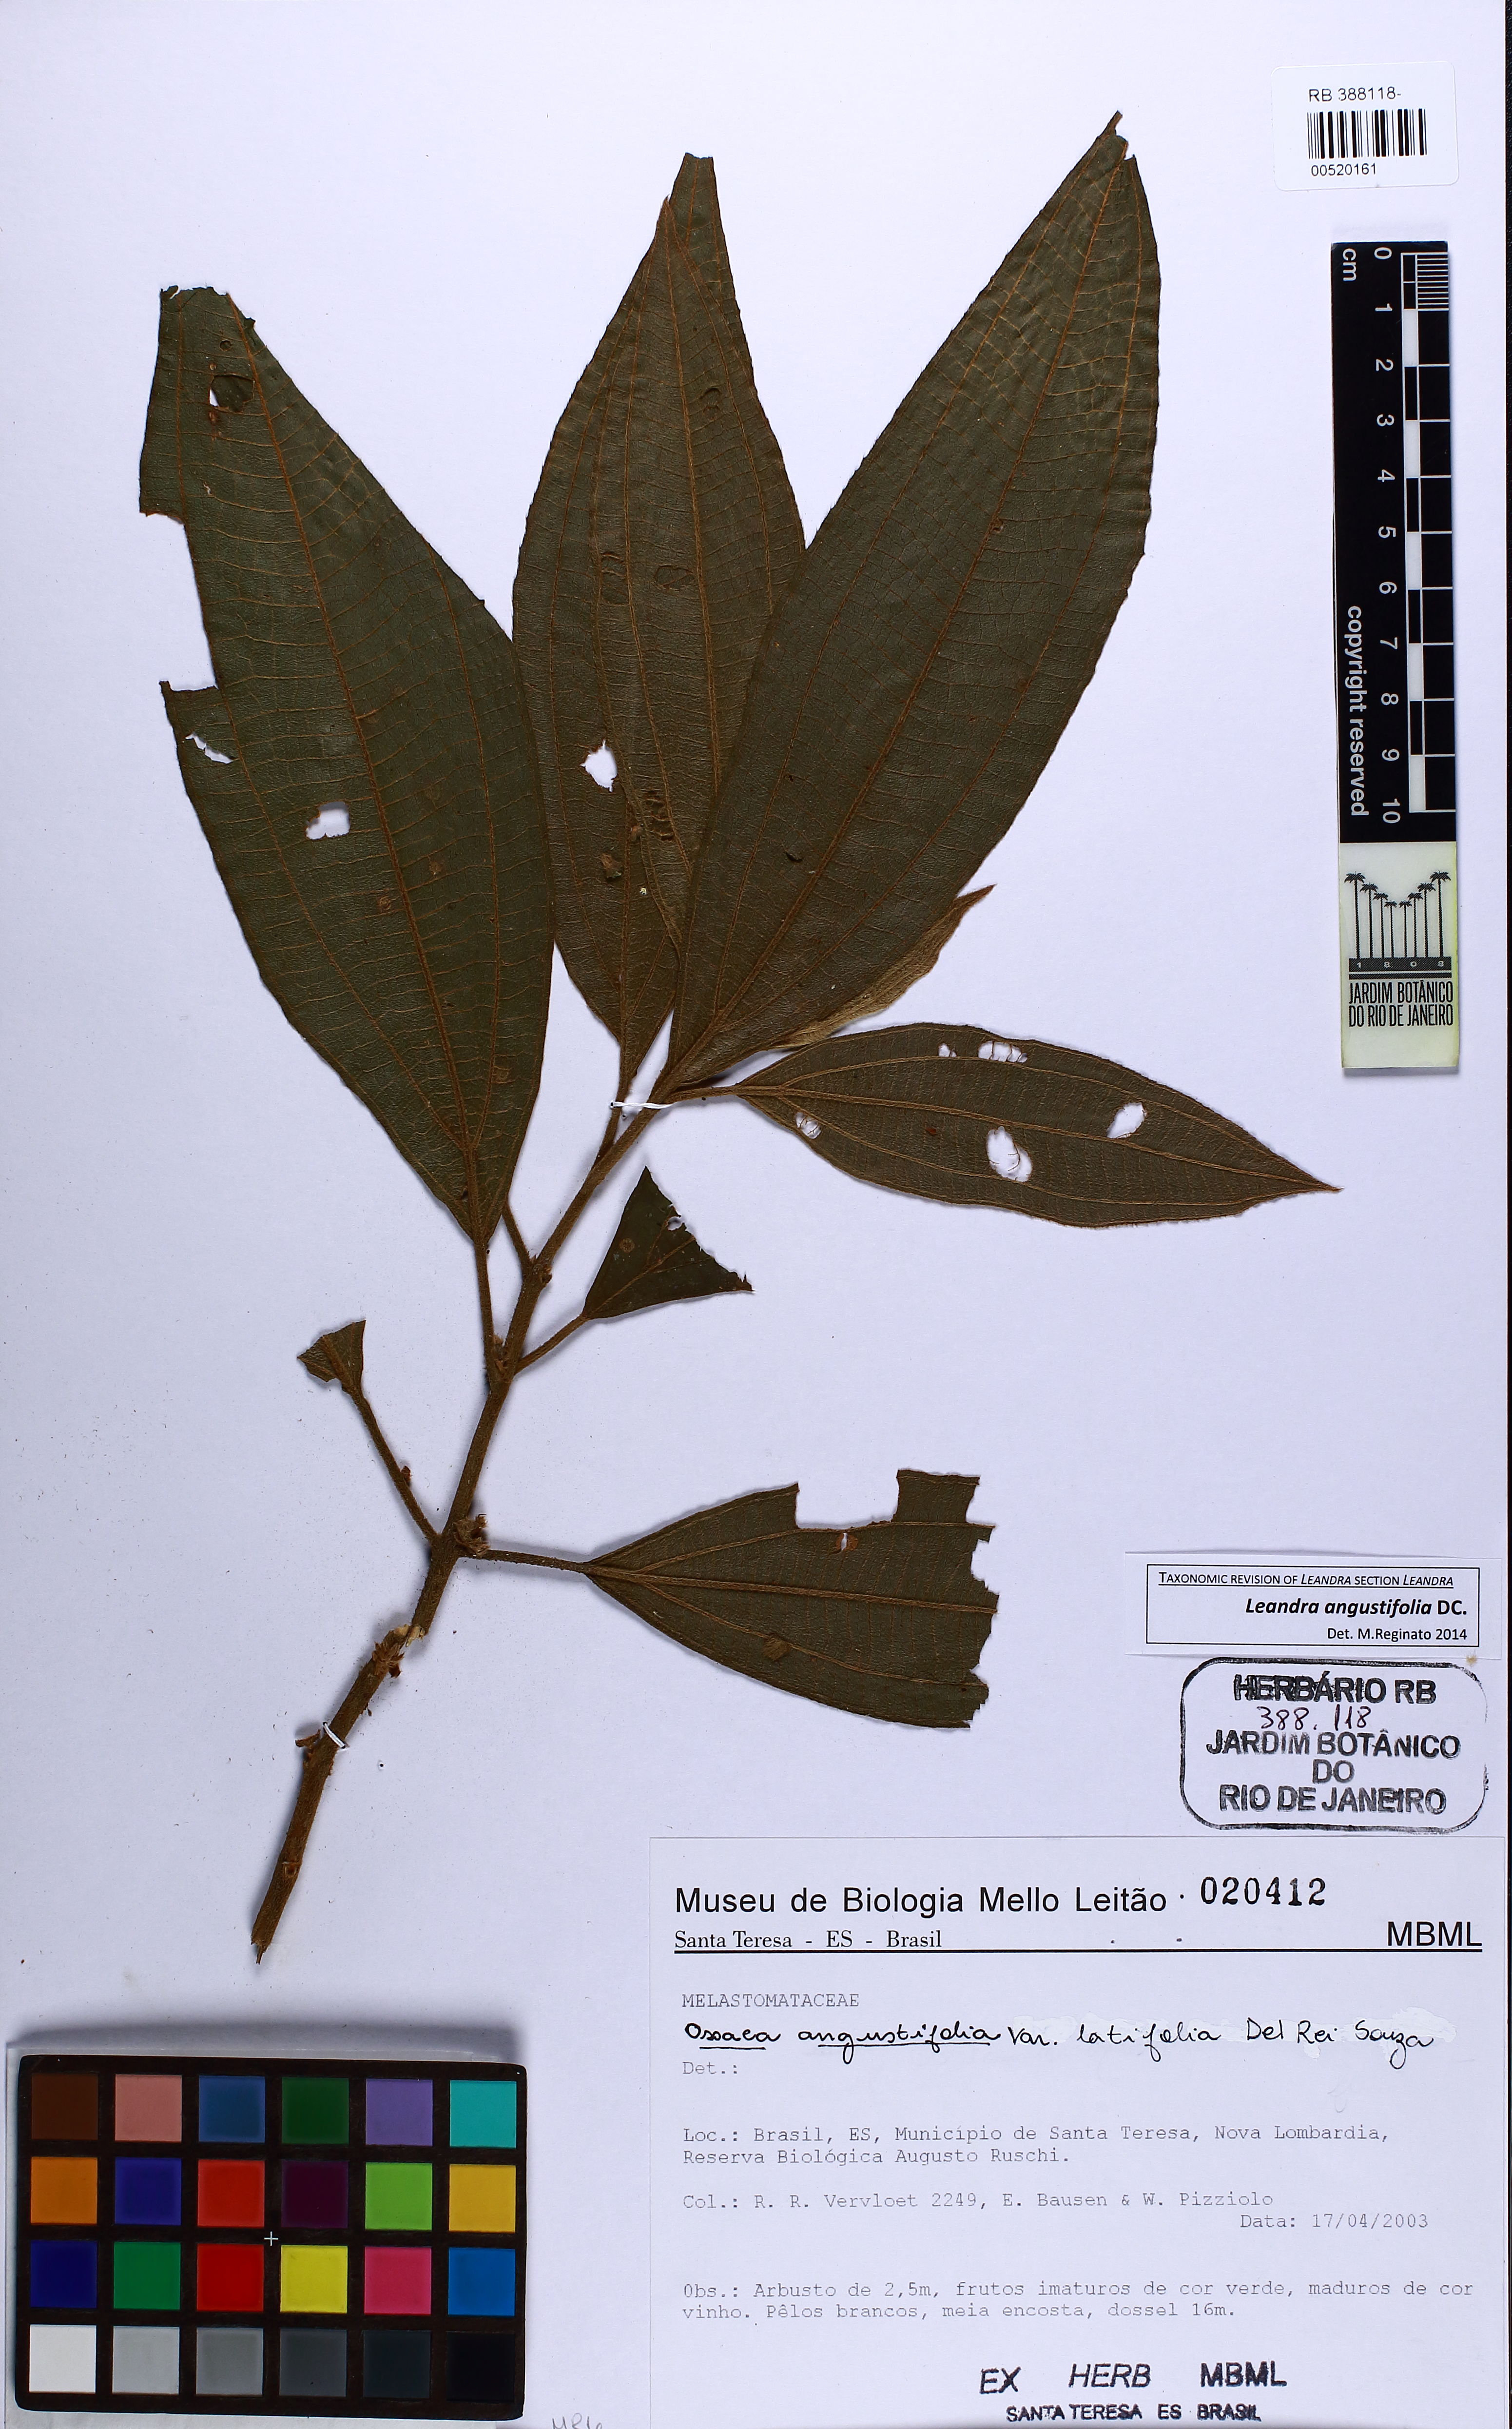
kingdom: Plantae
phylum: Tracheophyta
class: Magnoliopsida
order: Myrtales
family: Melastomataceae
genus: Miconia
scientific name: Miconia corcovadensis
